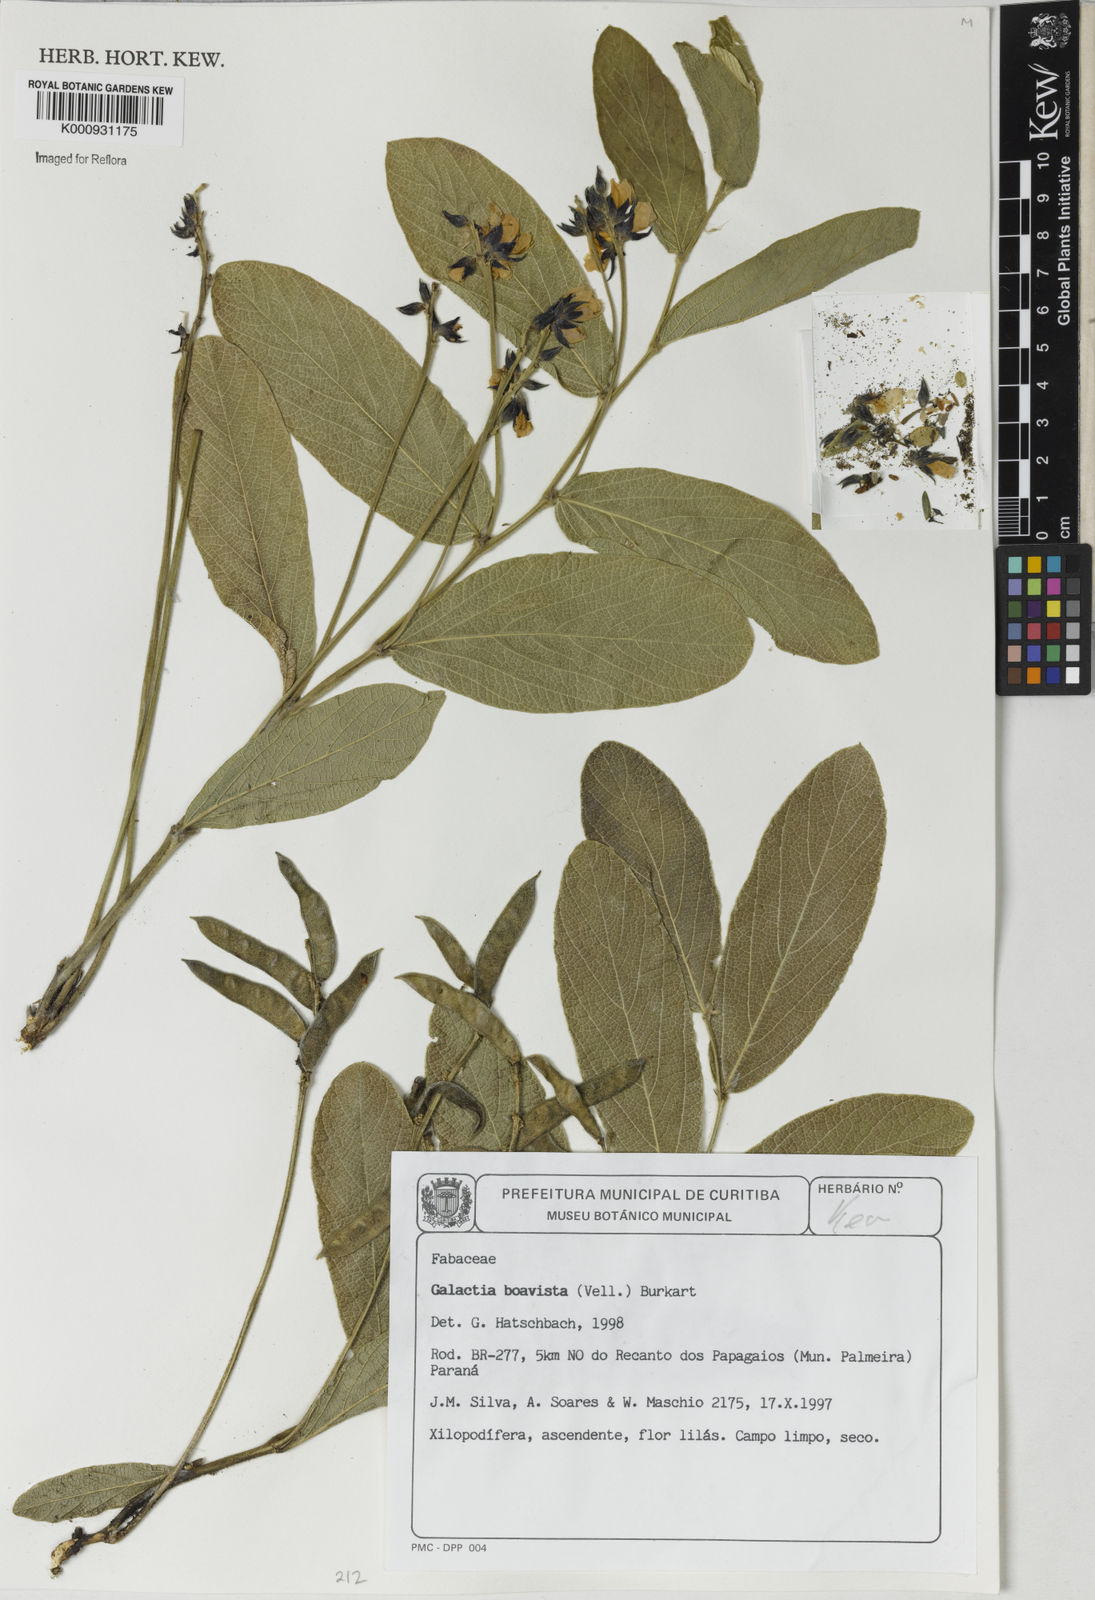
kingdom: Plantae
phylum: Tracheophyta
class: Magnoliopsida
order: Fabales
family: Fabaceae
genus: Cerradicola
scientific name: Cerradicola boavista
